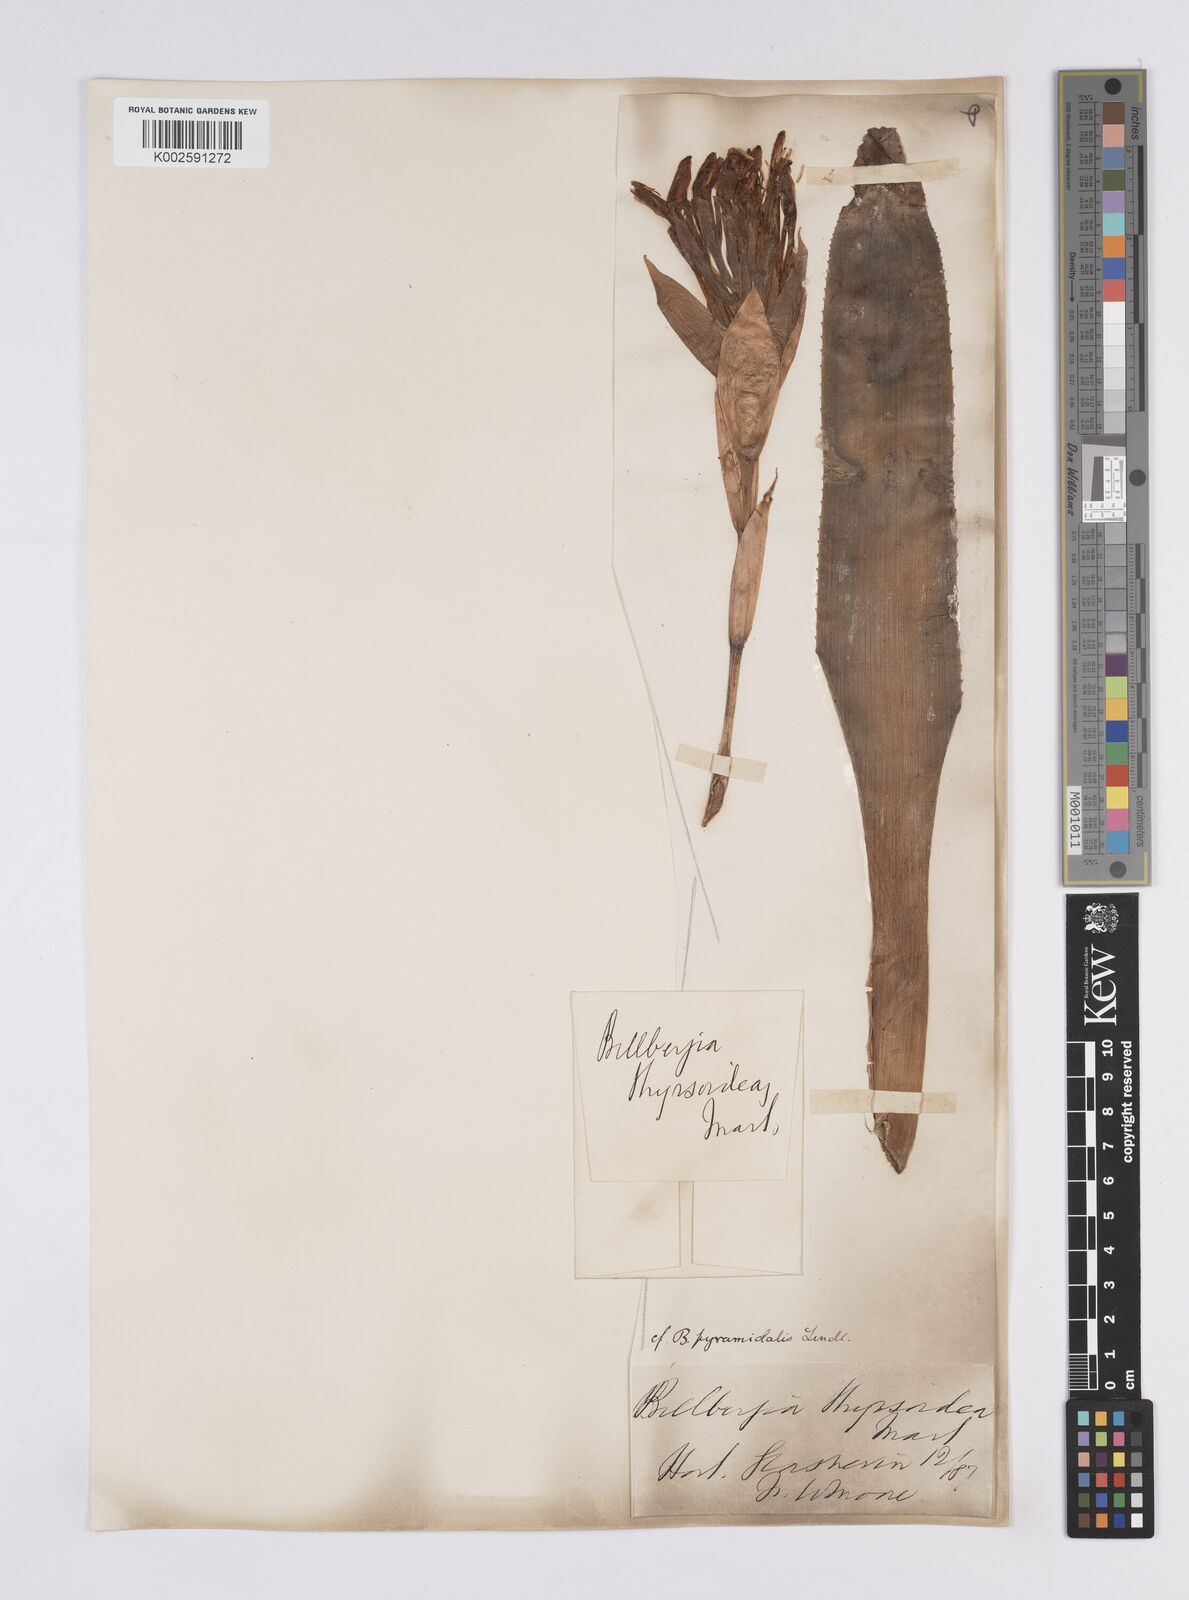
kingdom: Plantae
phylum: Tracheophyta
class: Liliopsida
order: Poales
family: Bromeliaceae
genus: Billbergia
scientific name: Billbergia pyramidalis
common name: Foolproofplant
